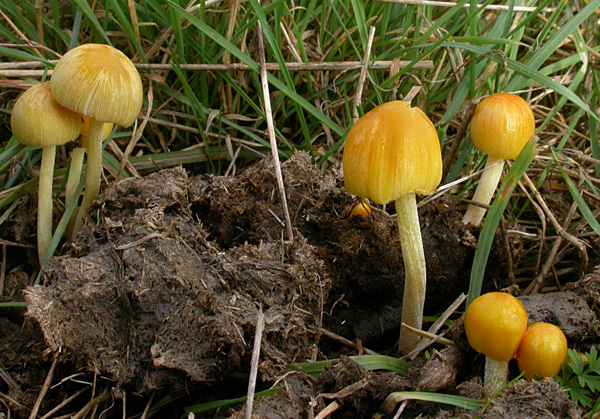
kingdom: Fungi
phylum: Basidiomycota
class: Agaricomycetes
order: Agaricales
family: Bolbitiaceae
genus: Bolbitius
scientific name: Bolbitius titubans
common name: almindelig gulhat
